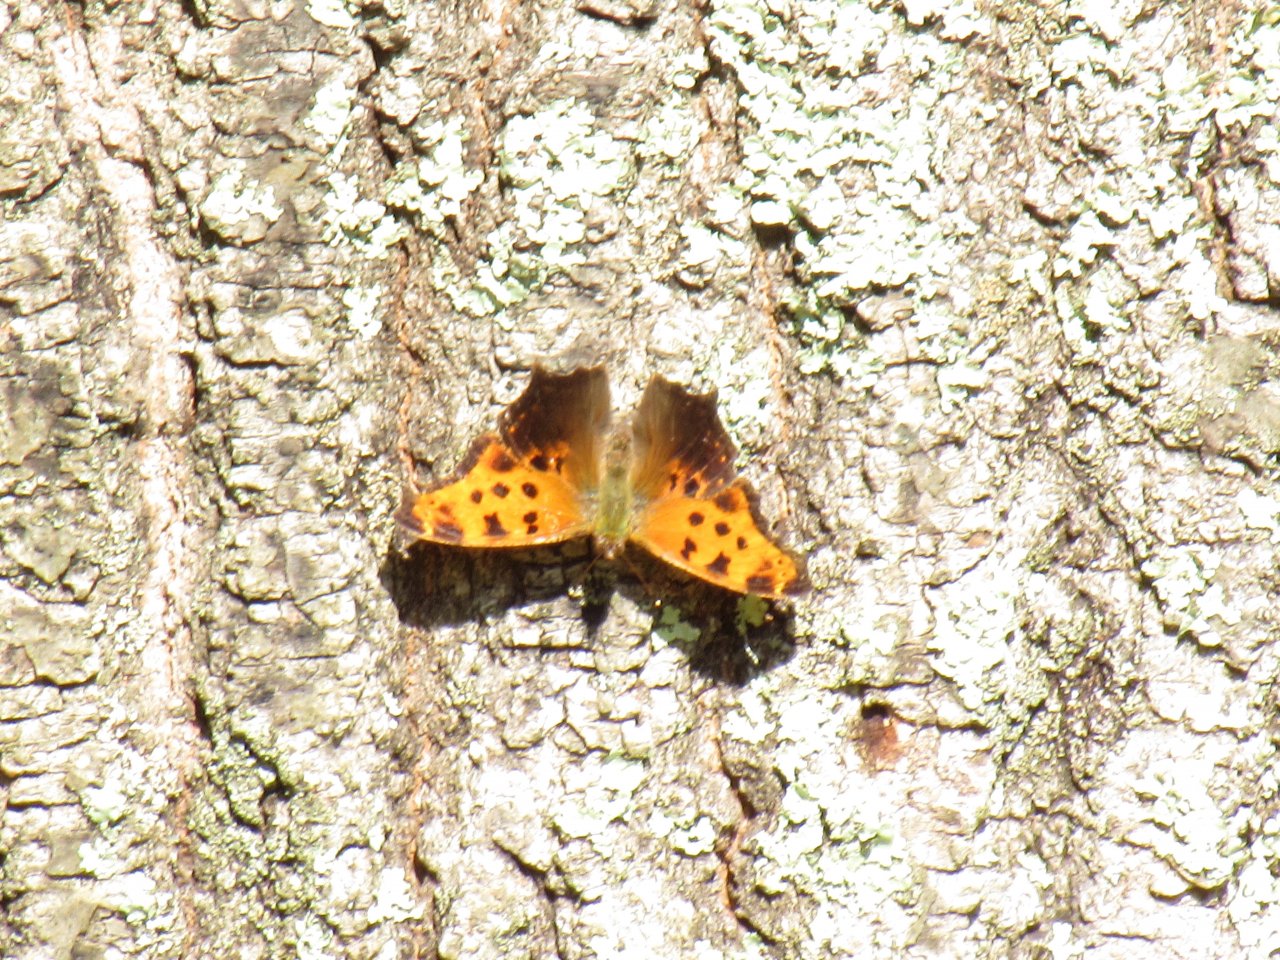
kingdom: Animalia
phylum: Arthropoda
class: Insecta
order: Lepidoptera
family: Nymphalidae
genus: Polygonia
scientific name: Polygonia comma
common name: Eastern Comma
